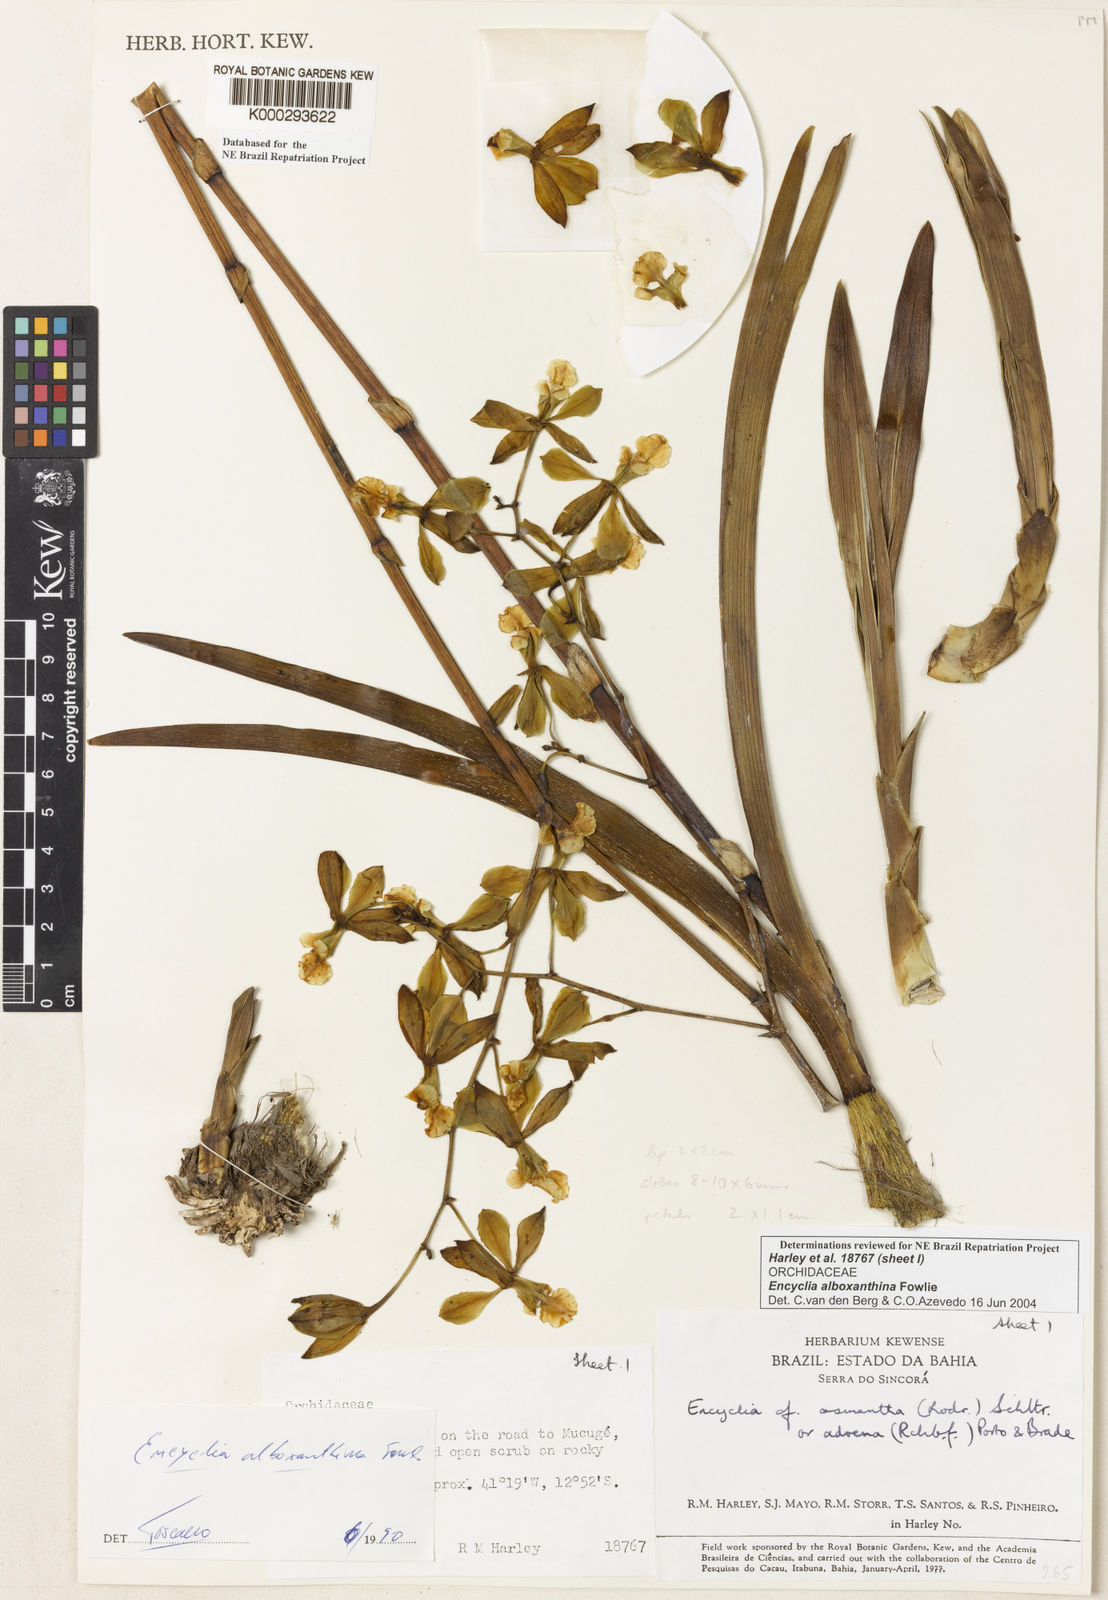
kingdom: Plantae
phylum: Tracheophyta
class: Liliopsida
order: Asparagales
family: Orchidaceae
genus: Encyclia
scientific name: Encyclia alboxanthina
